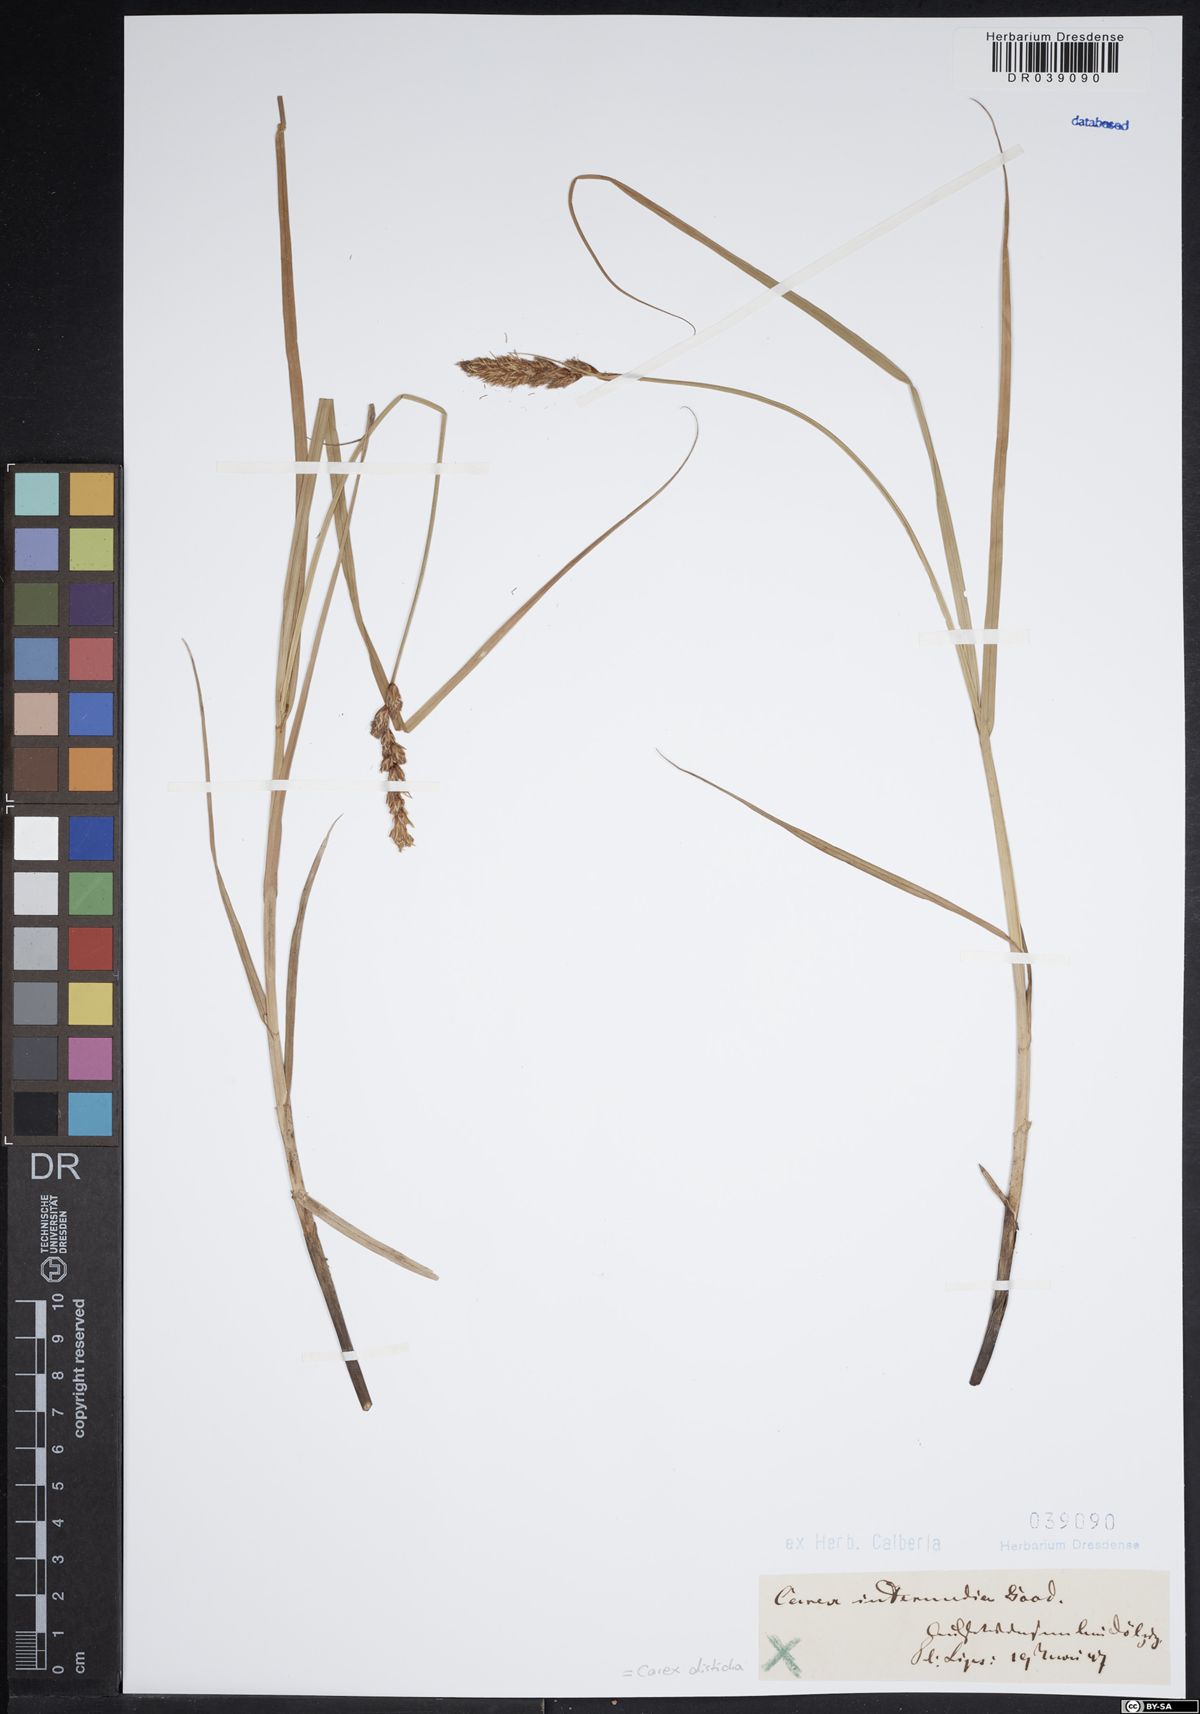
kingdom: Plantae
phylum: Tracheophyta
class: Liliopsida
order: Poales
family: Cyperaceae
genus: Carex
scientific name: Carex disticha
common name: Brown sedge
